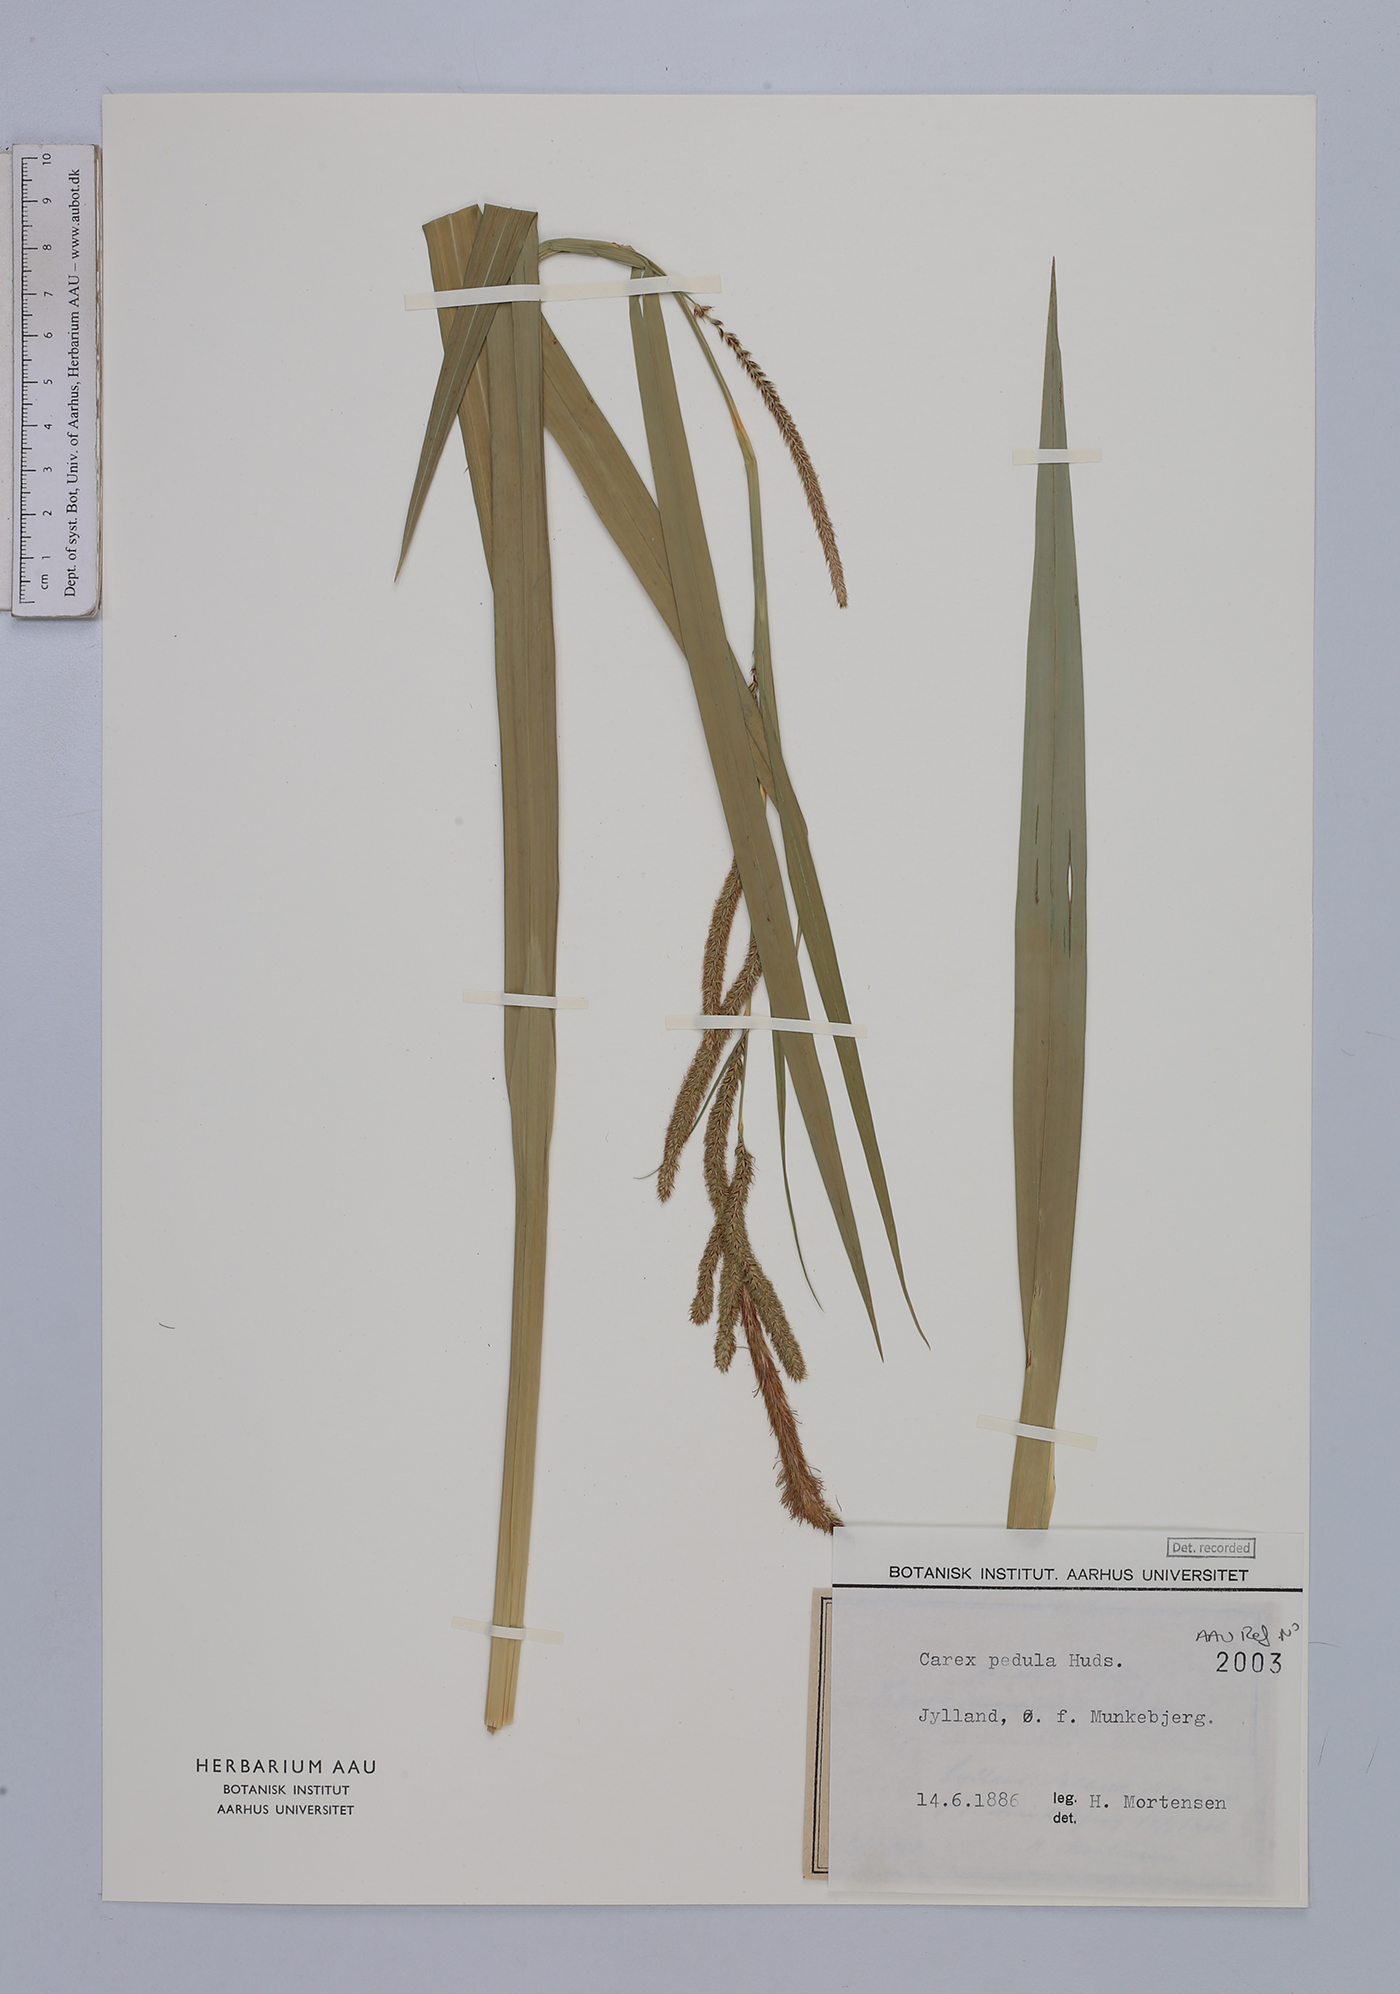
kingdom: Plantae
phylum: Tracheophyta
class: Liliopsida
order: Poales
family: Cyperaceae
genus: Carex
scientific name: Carex pendula
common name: Pendulous sedge
